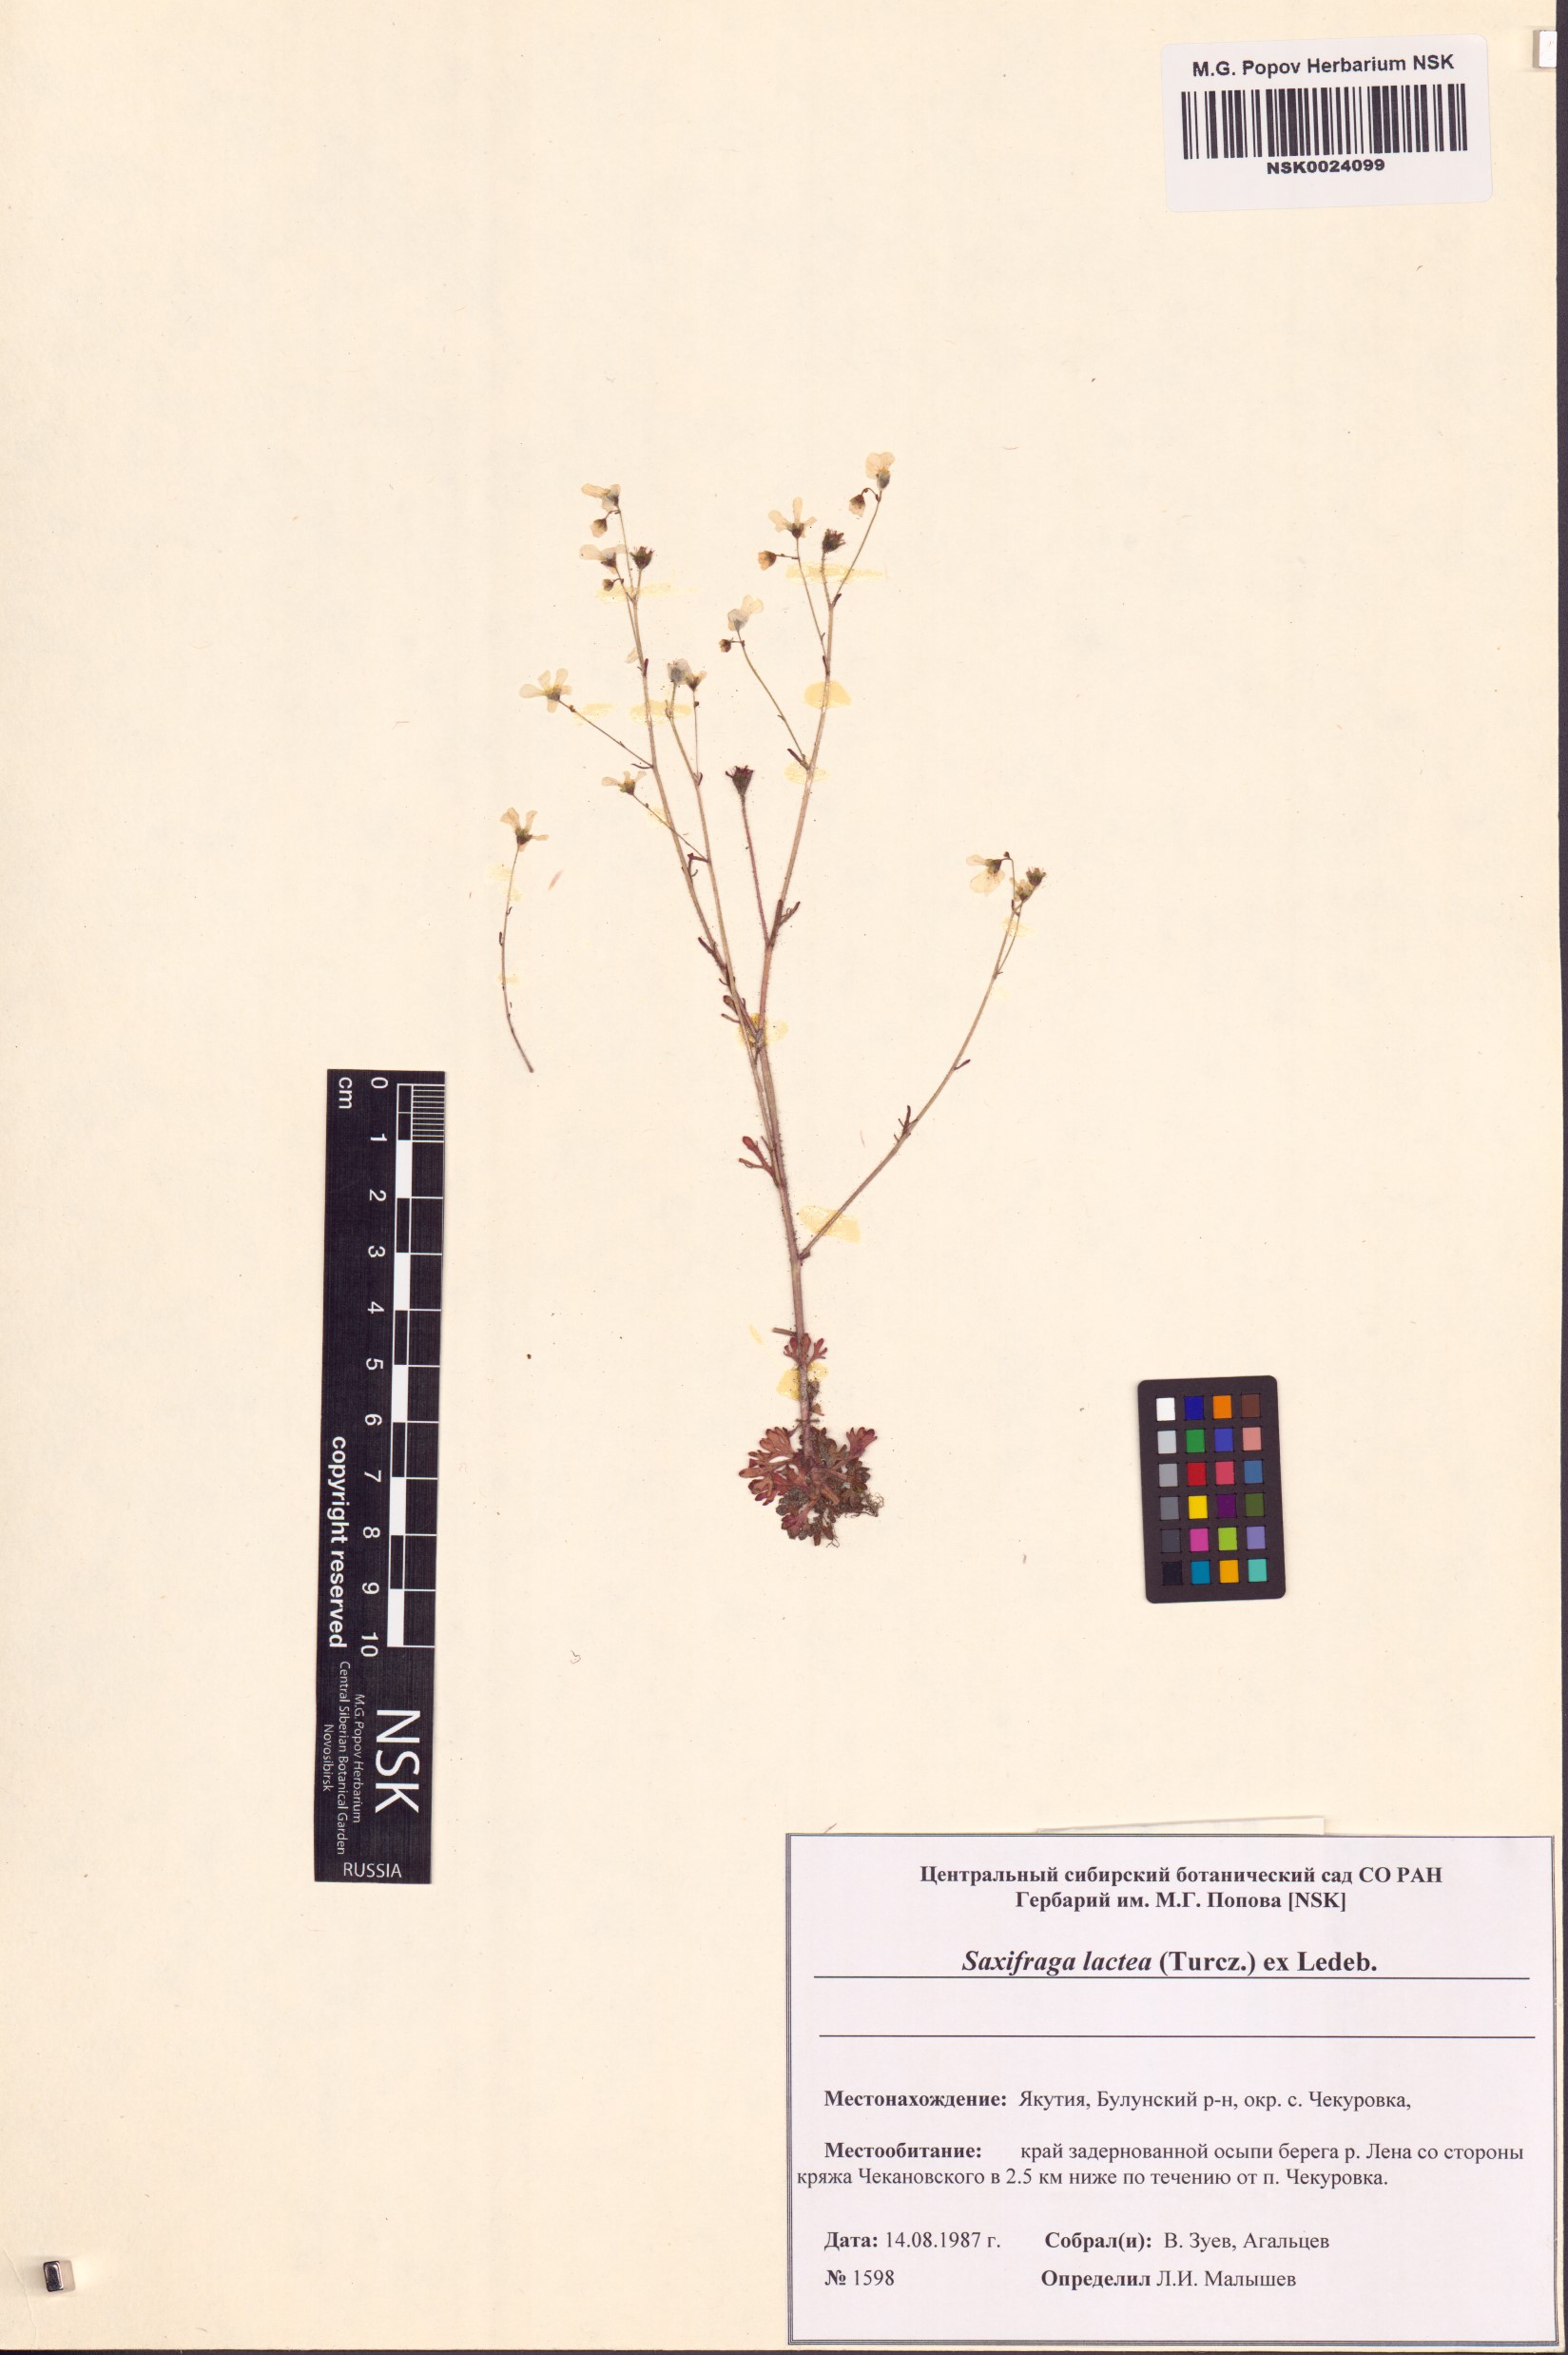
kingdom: Plantae
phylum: Tracheophyta
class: Magnoliopsida
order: Saxifragales
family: Saxifragaceae
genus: Saxifraga
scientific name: Saxifraga lactea
